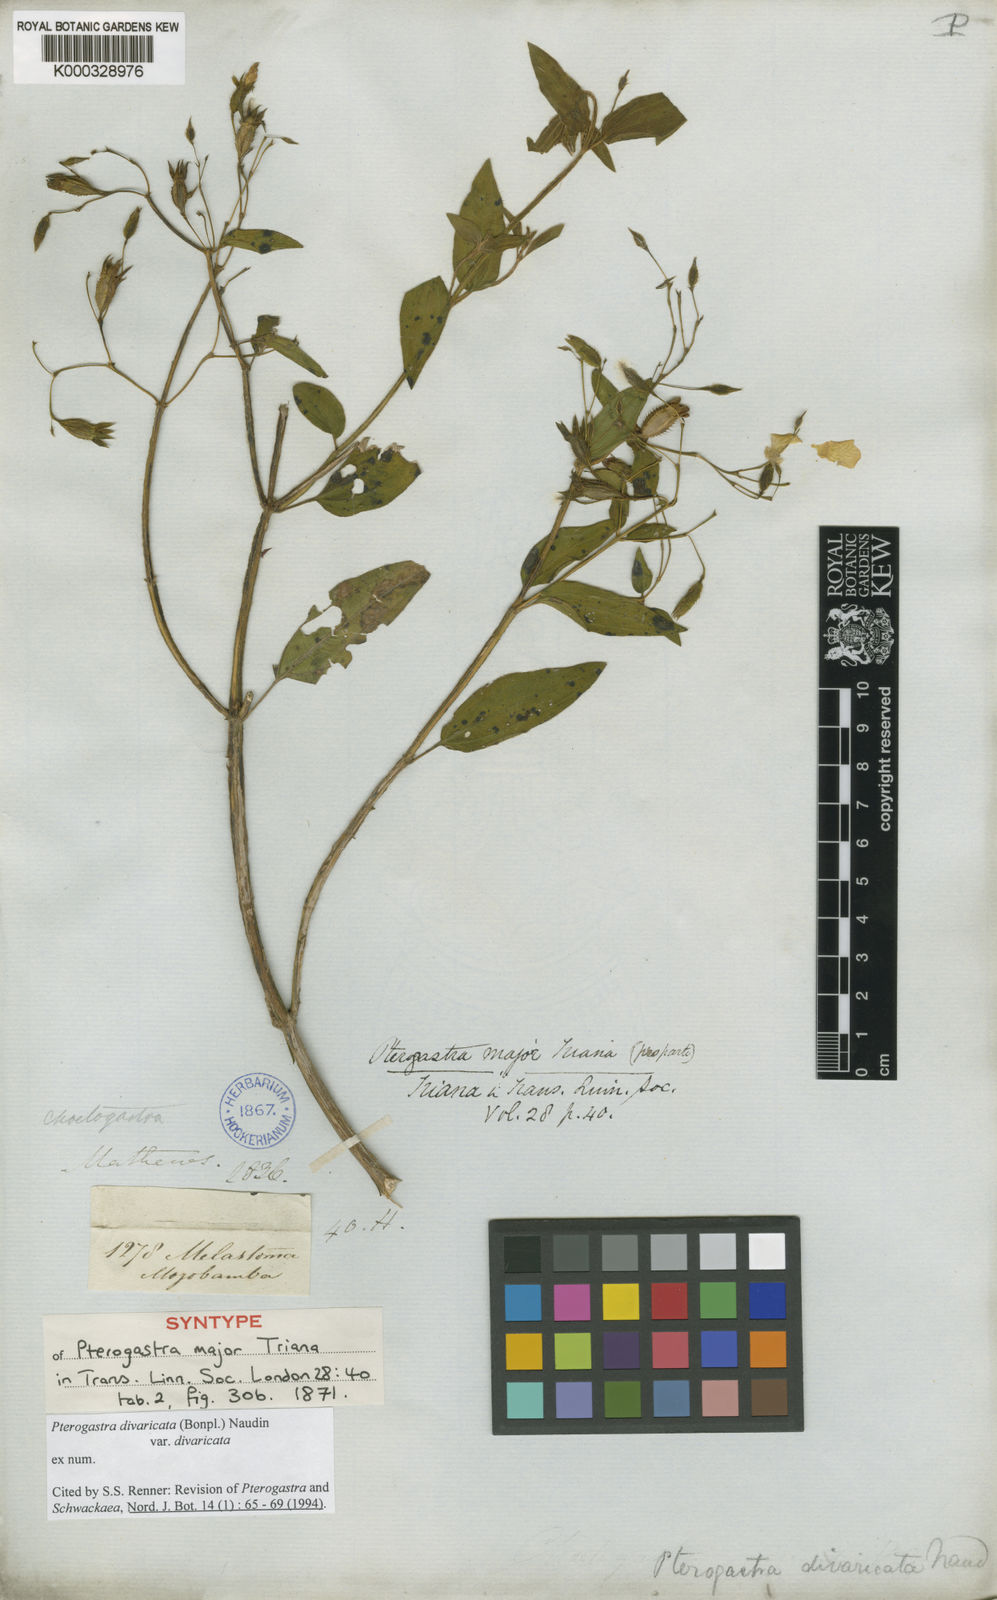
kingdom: Plantae
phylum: Tracheophyta
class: Magnoliopsida
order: Myrtales
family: Melastomataceae
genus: Pterogastra
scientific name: Pterogastra divaricata
